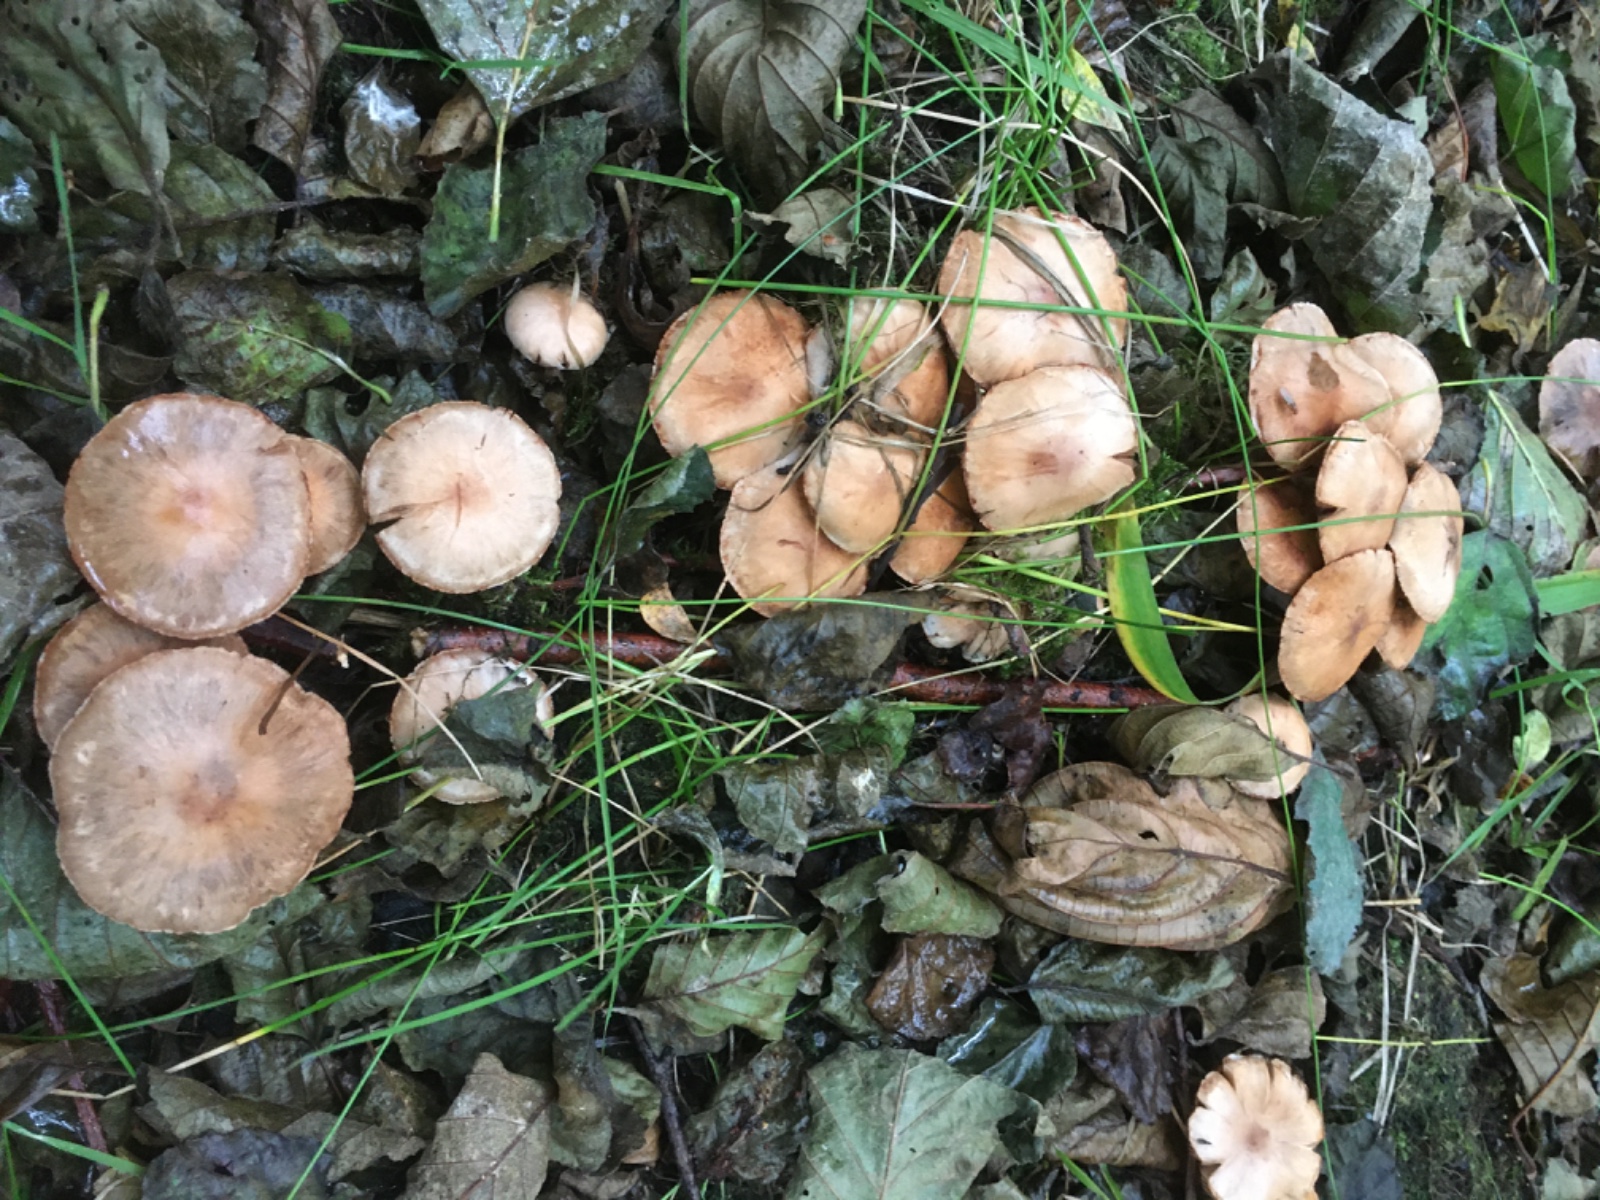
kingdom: Fungi
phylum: Basidiomycota
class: Agaricomycetes
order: Agaricales
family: Cortinariaceae
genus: Cortinarius
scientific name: Cortinarius
